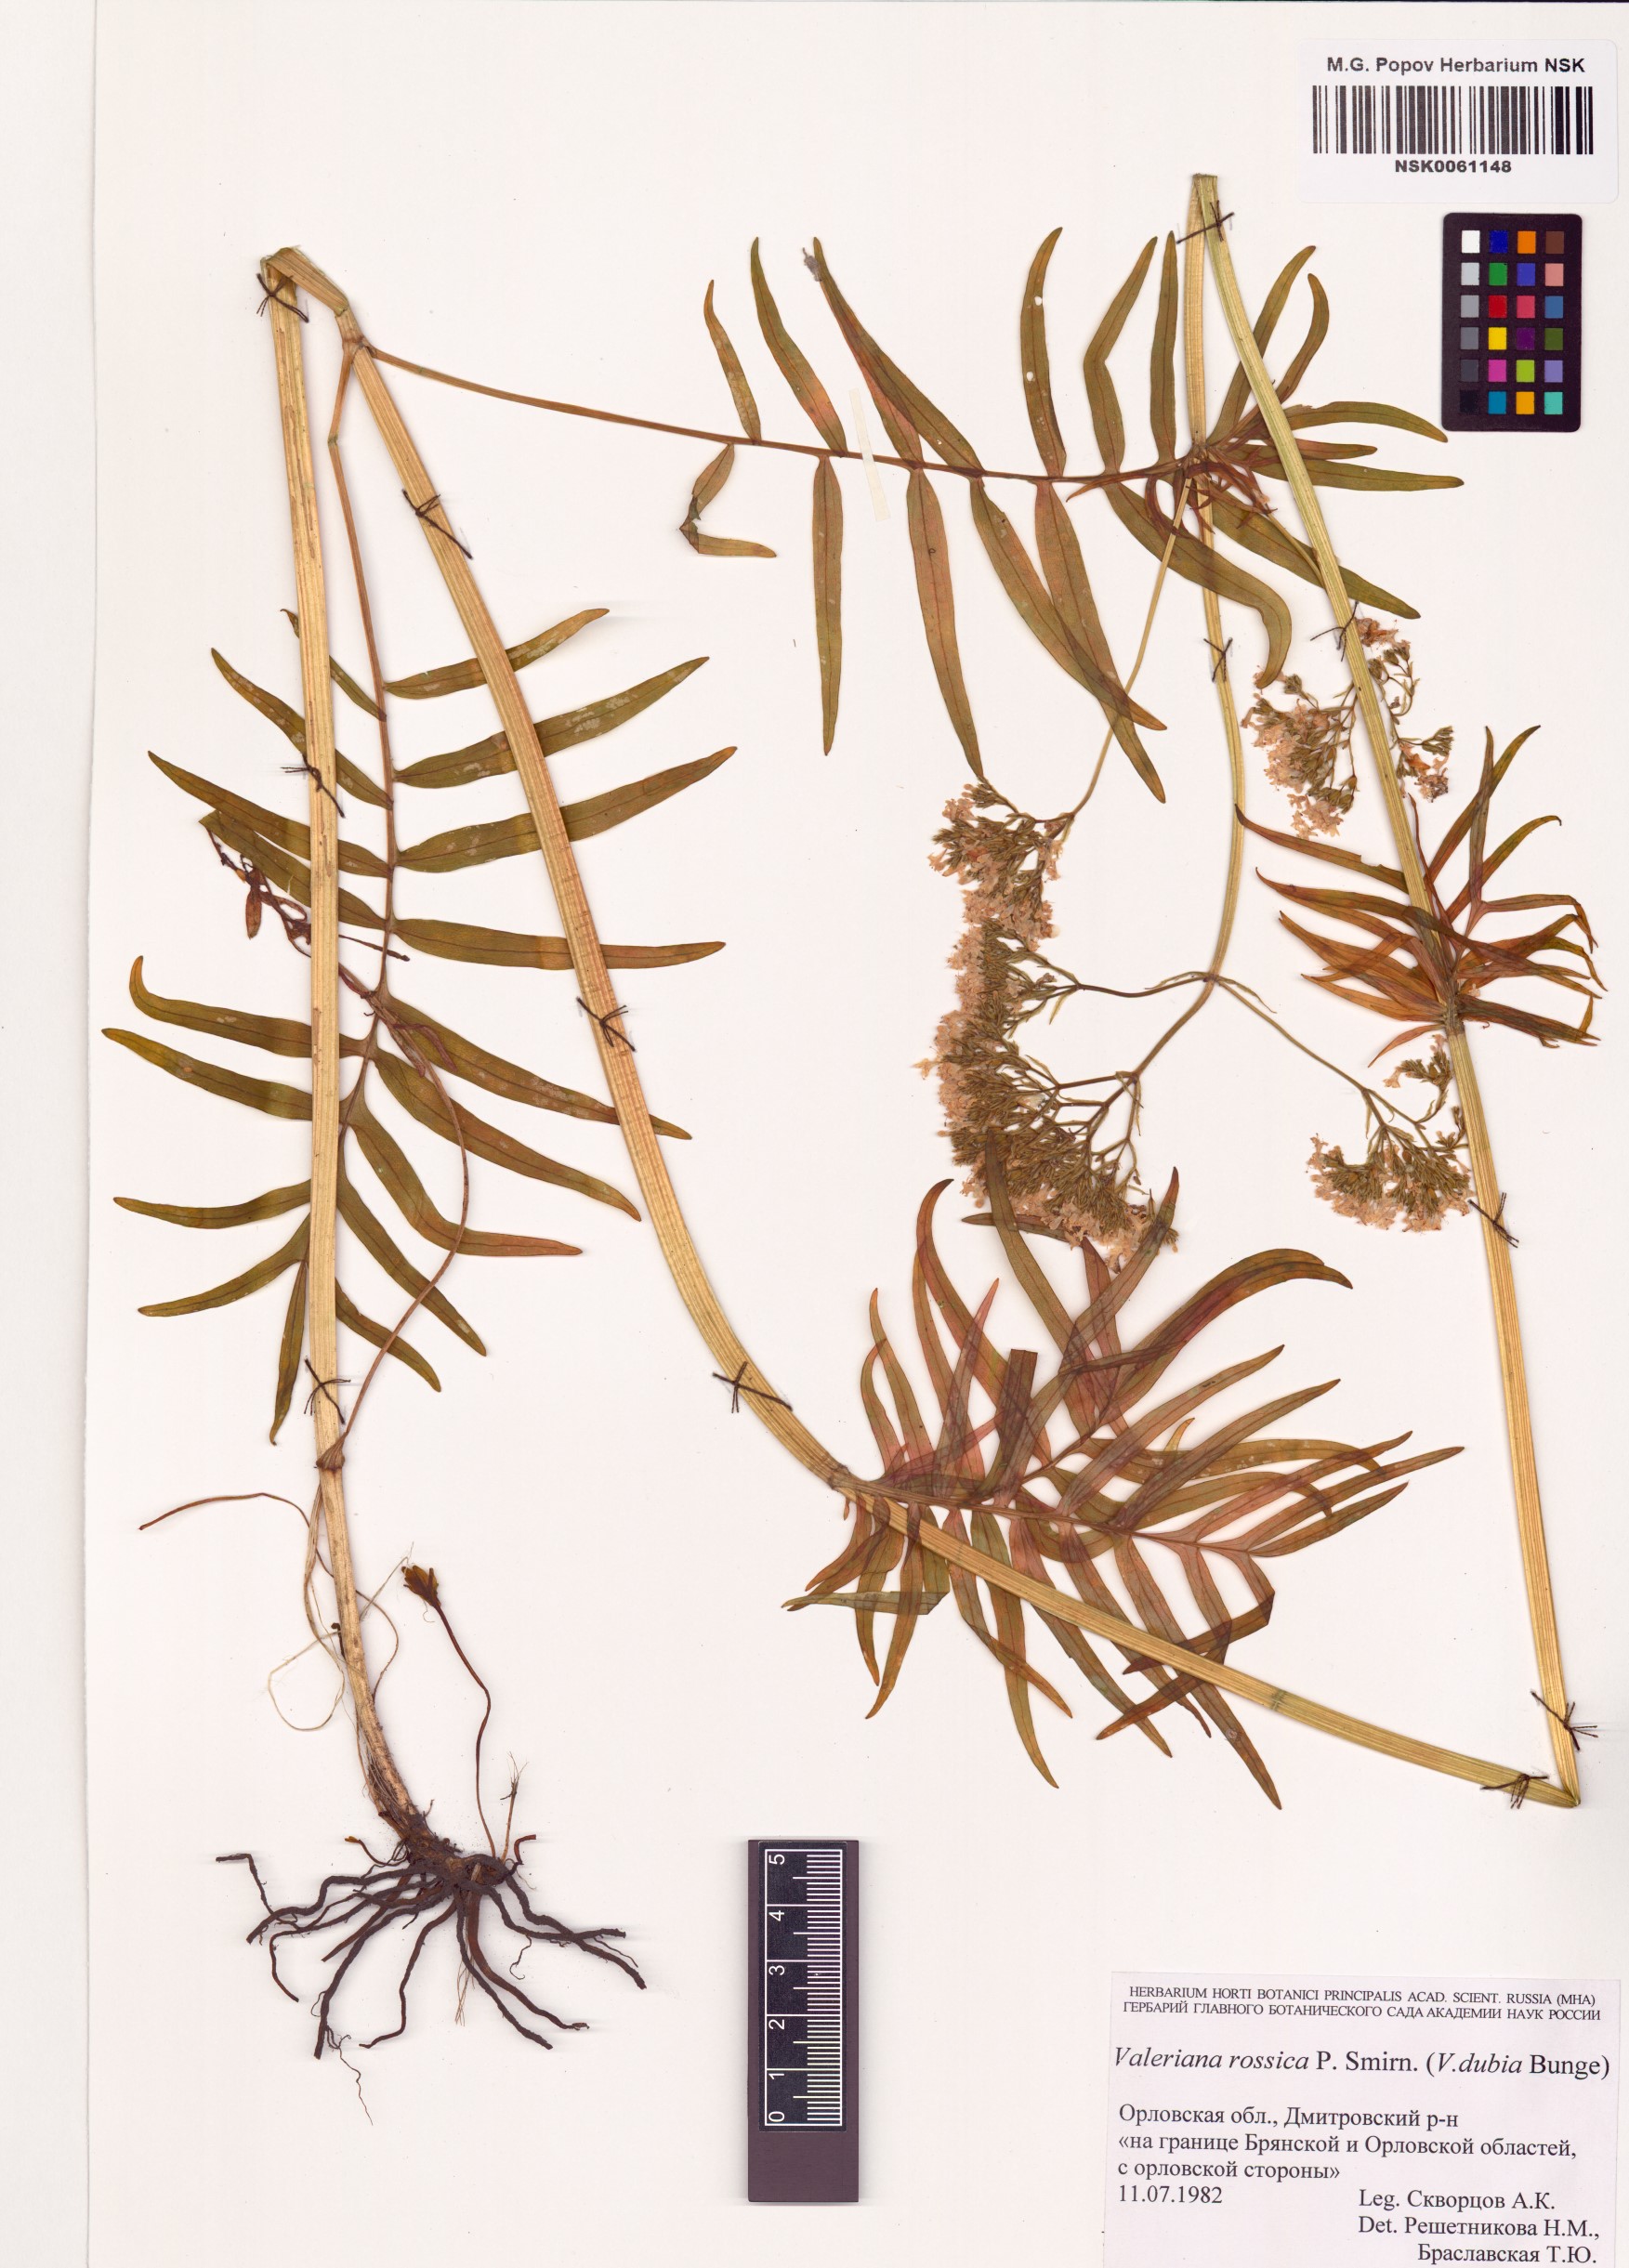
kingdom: Plantae
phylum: Tracheophyta
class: Magnoliopsida
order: Dipsacales
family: Caprifoliaceae
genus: Valeriana
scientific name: Valeriana rossica
